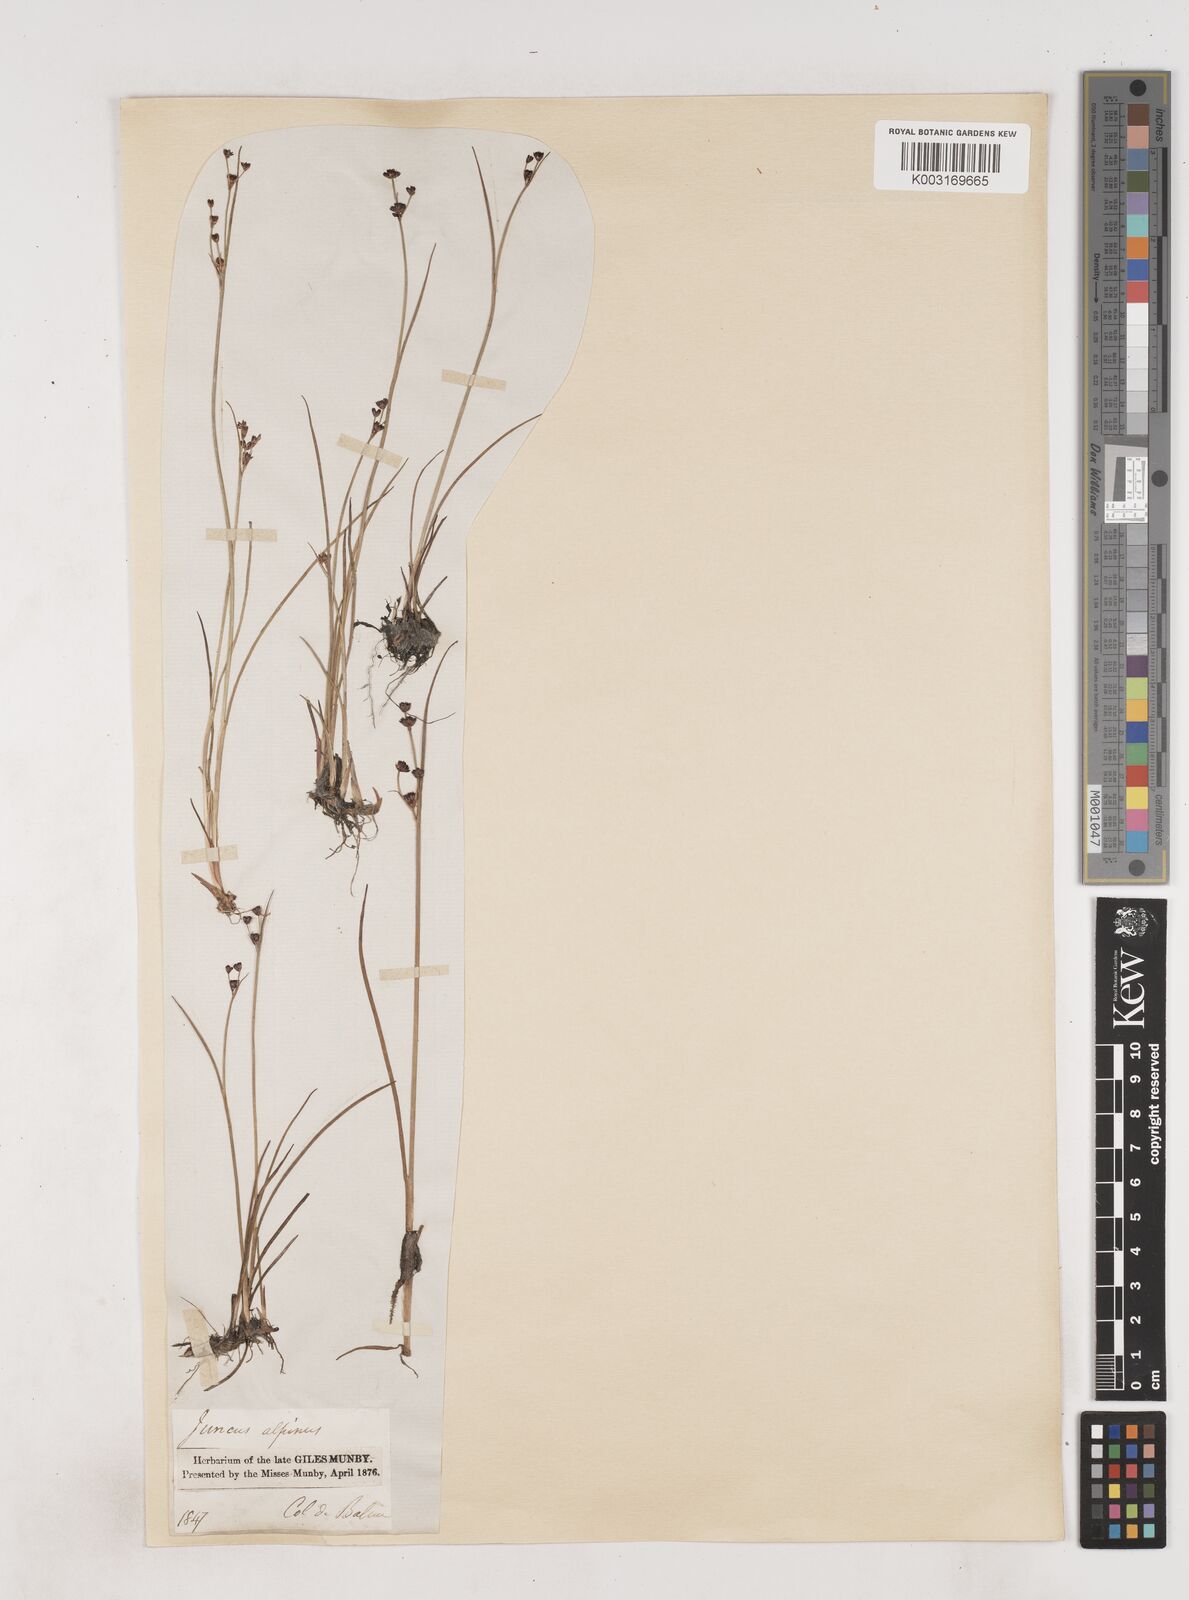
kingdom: Plantae
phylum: Tracheophyta
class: Liliopsida
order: Poales
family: Juncaceae
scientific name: Juncaceae
